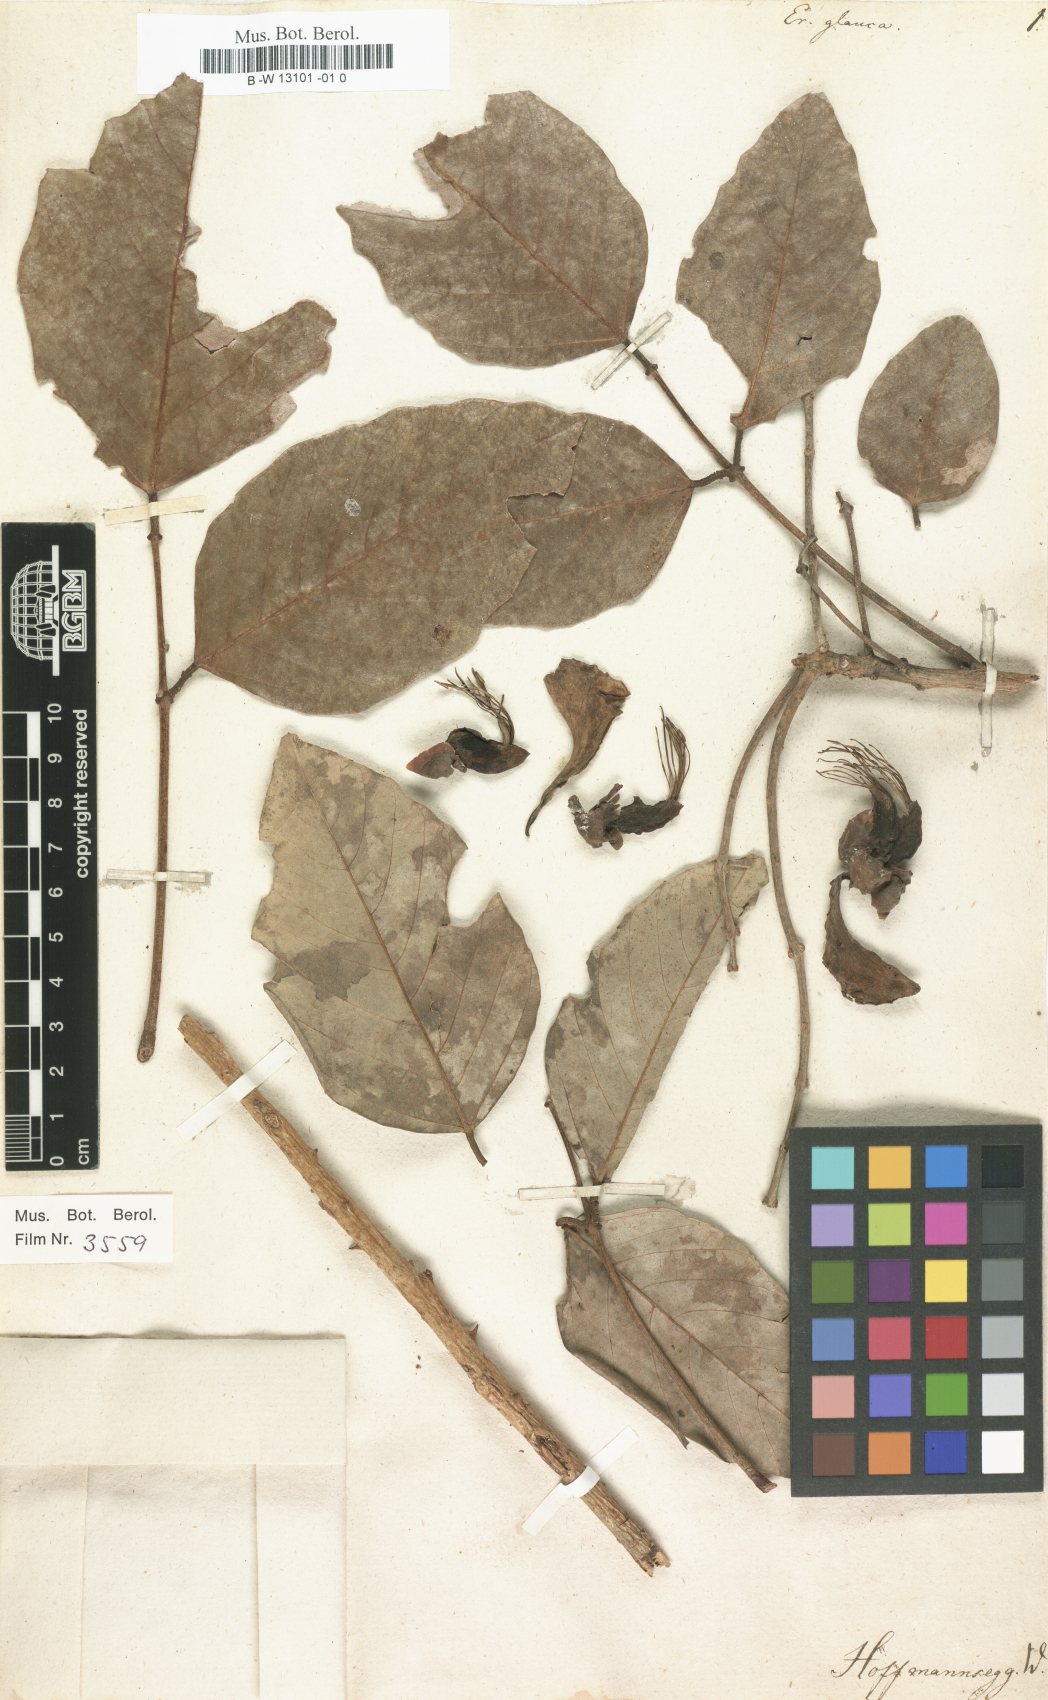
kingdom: Plantae
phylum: Tracheophyta
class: Magnoliopsida
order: Fabales
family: Fabaceae
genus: Erythrina
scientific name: Erythrina fusca
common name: Coral-bean
